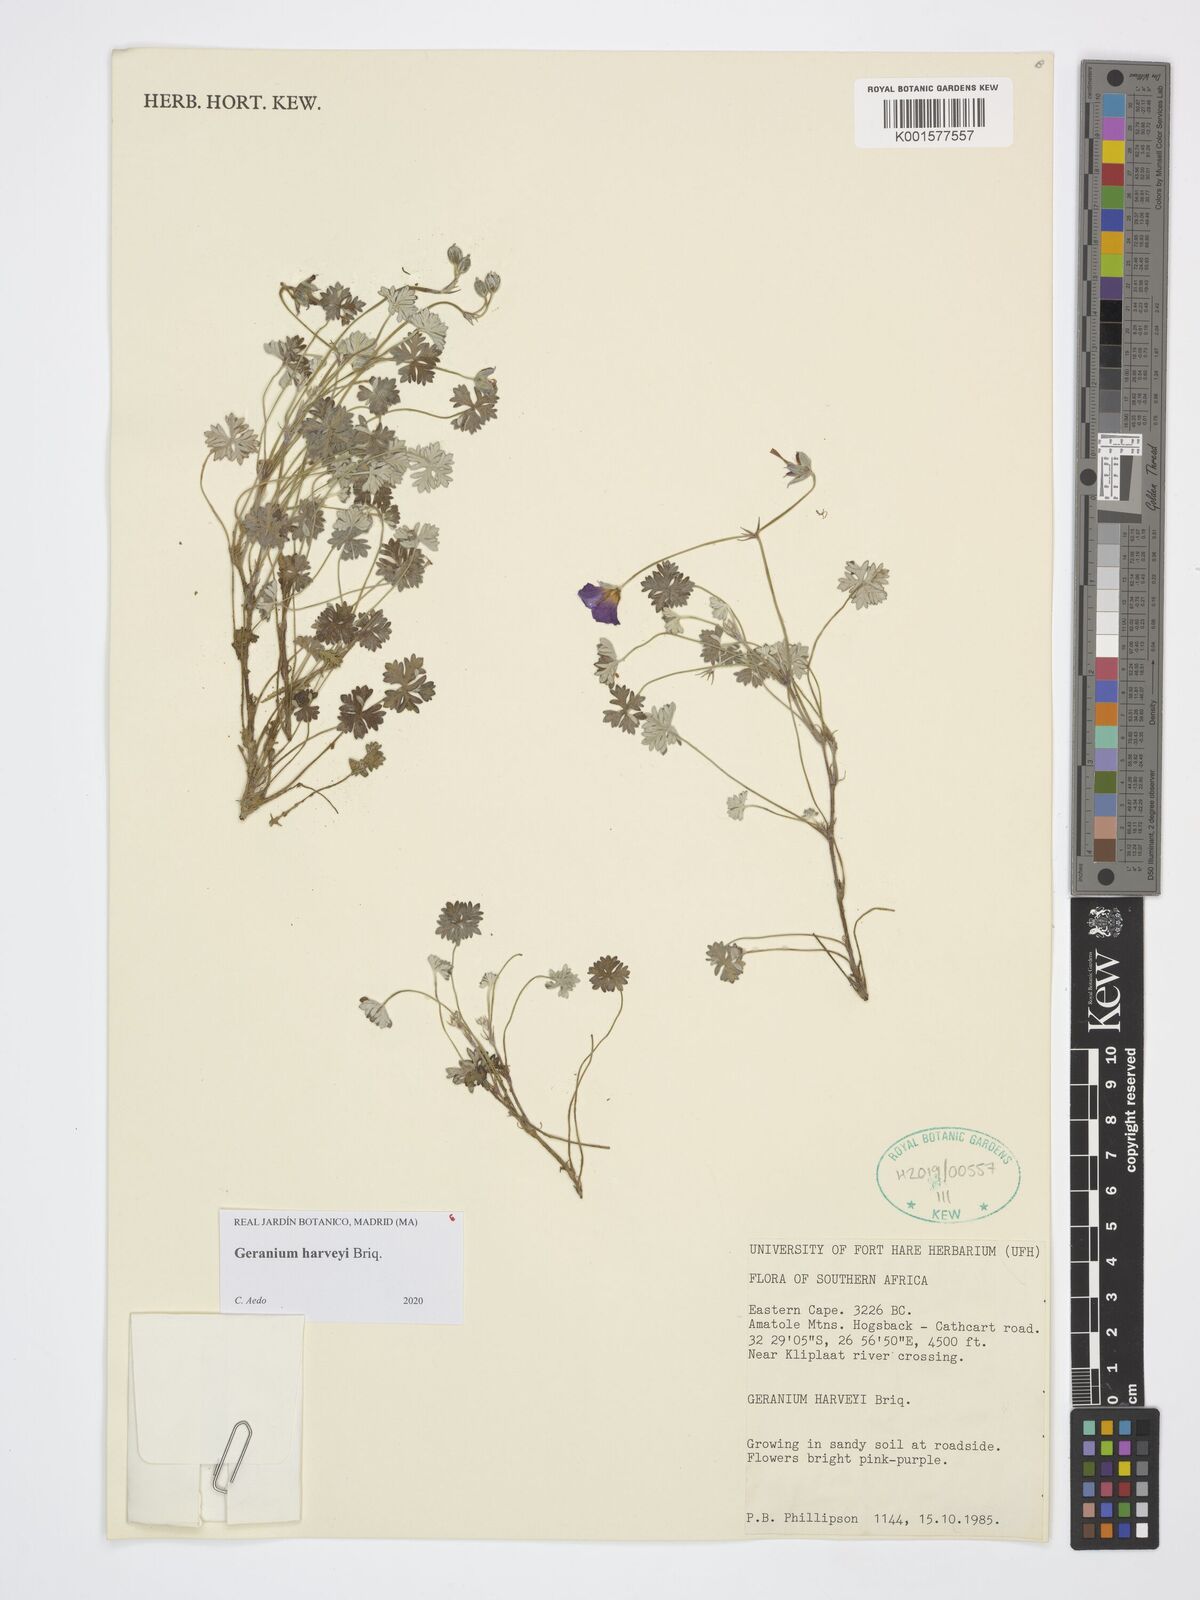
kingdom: Plantae
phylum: Tracheophyta
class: Magnoliopsida
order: Geraniales
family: Geraniaceae
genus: Geranium
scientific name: Geranium harveyi
